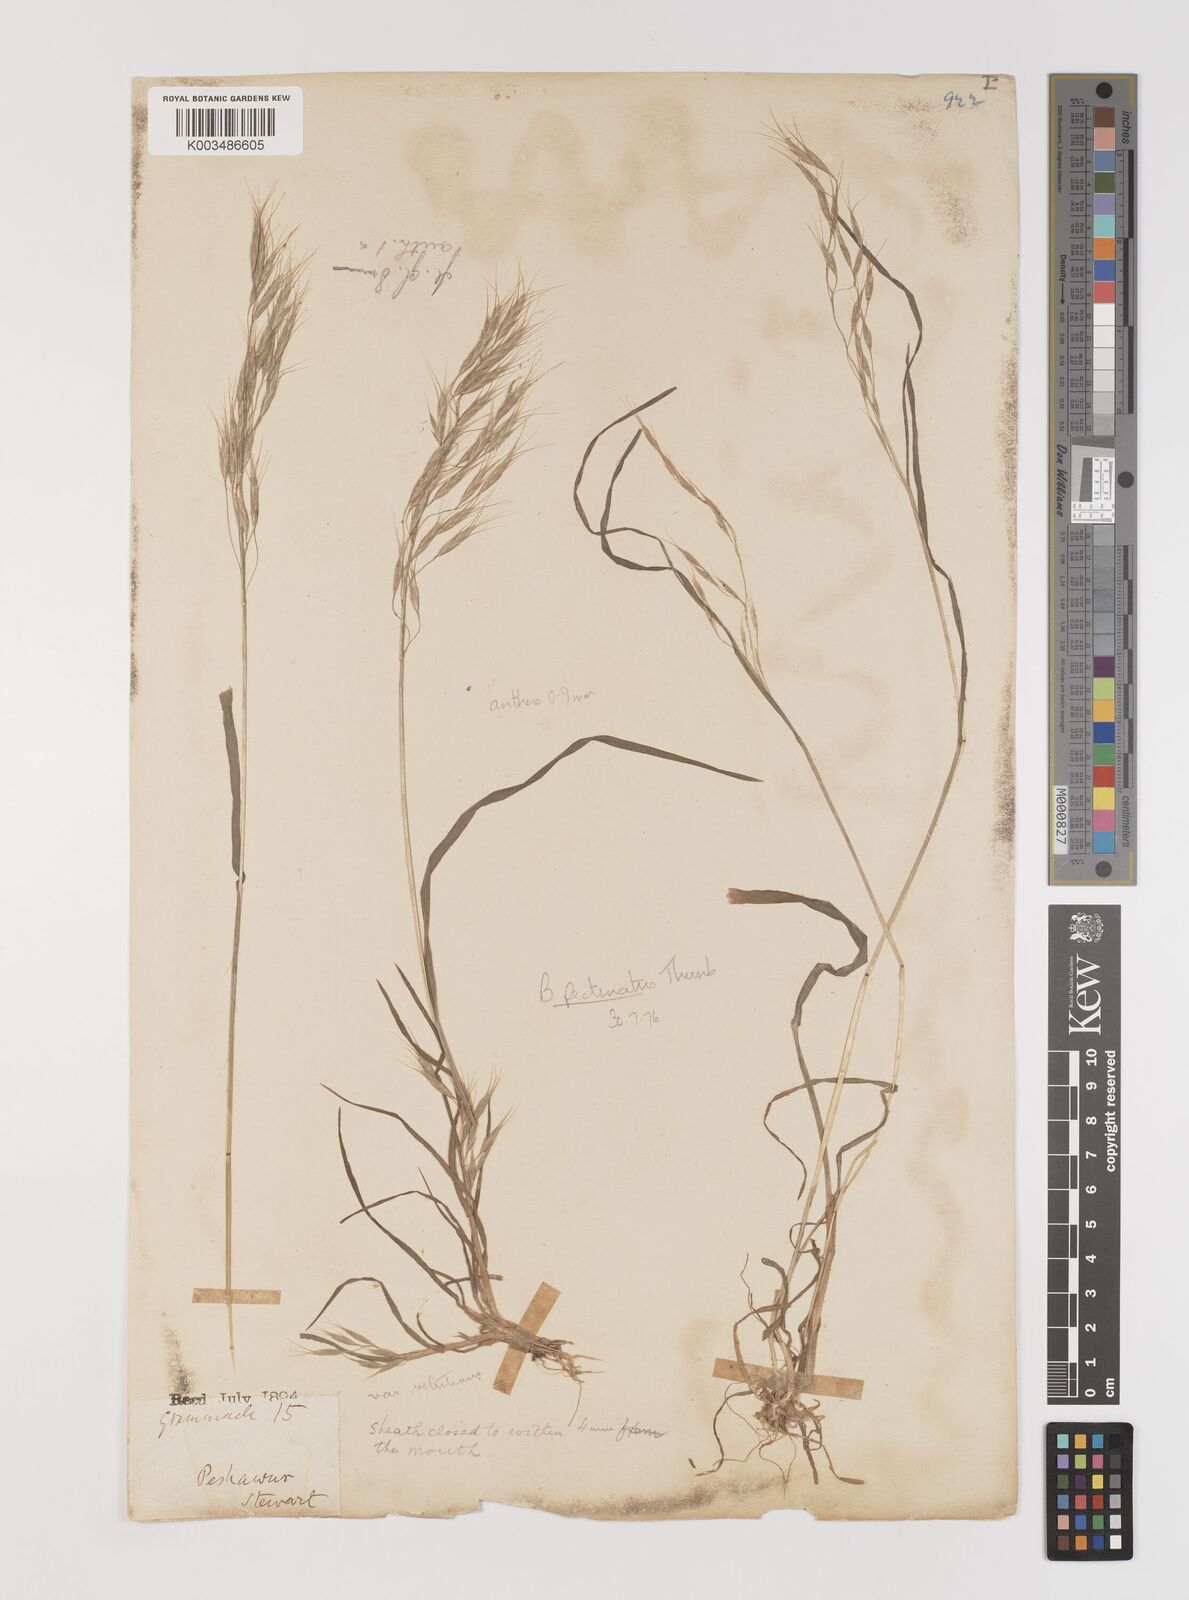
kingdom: Plantae
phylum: Tracheophyta
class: Liliopsida
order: Poales
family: Poaceae
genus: Bromus
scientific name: Bromus pectinatus
